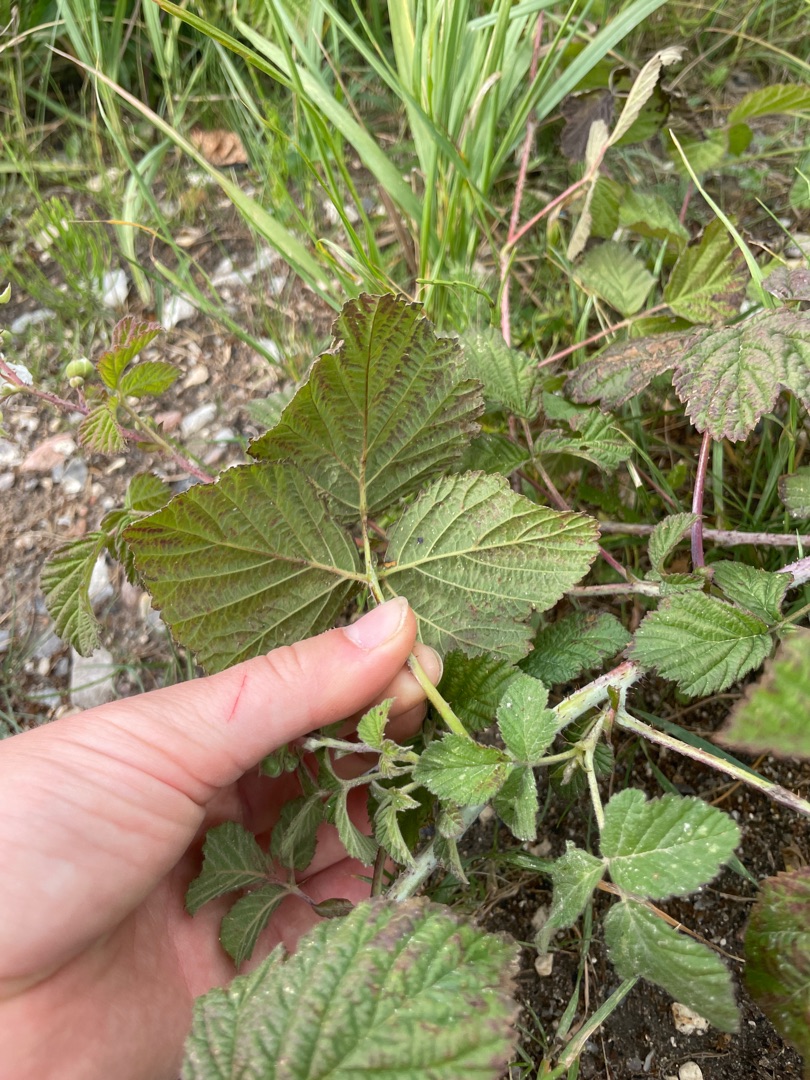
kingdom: Plantae
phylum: Tracheophyta
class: Magnoliopsida
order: Rosales
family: Rosaceae
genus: Rubus
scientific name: Rubus caesius
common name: Korbær
